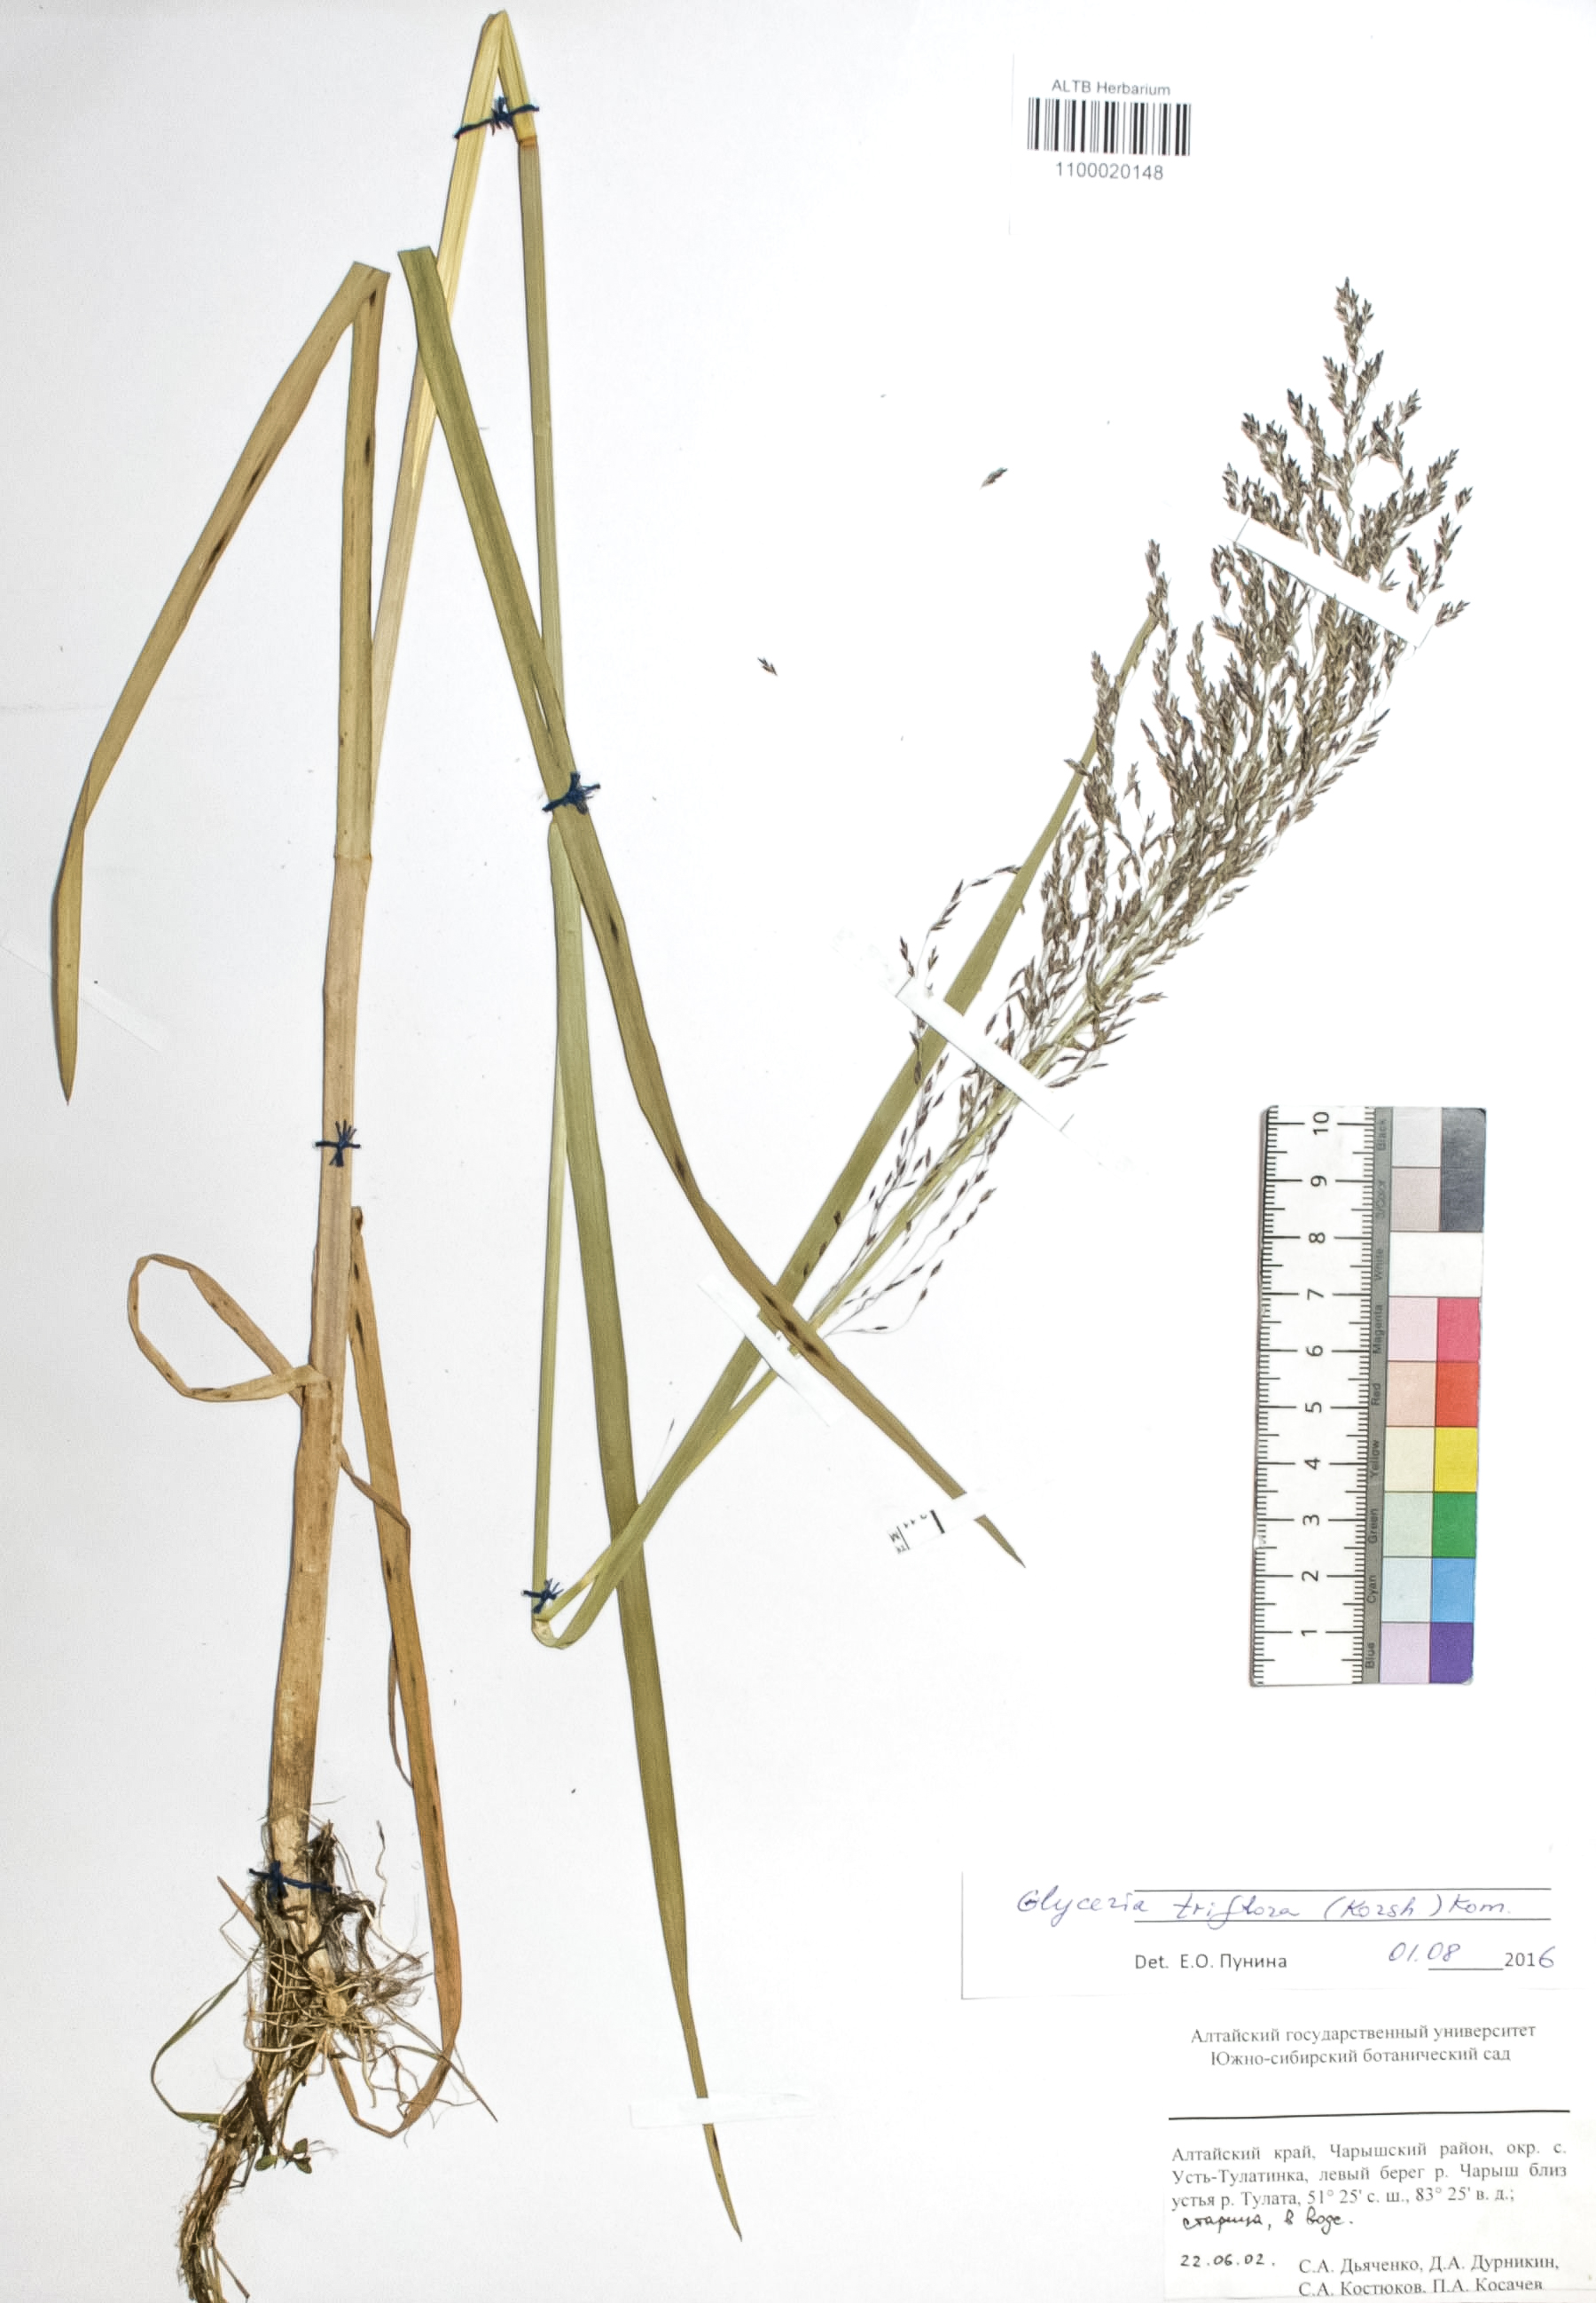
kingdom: Plantae
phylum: Tracheophyta
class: Liliopsida
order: Poales
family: Poaceae
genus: Glyceria
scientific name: Glyceria lithuanica
